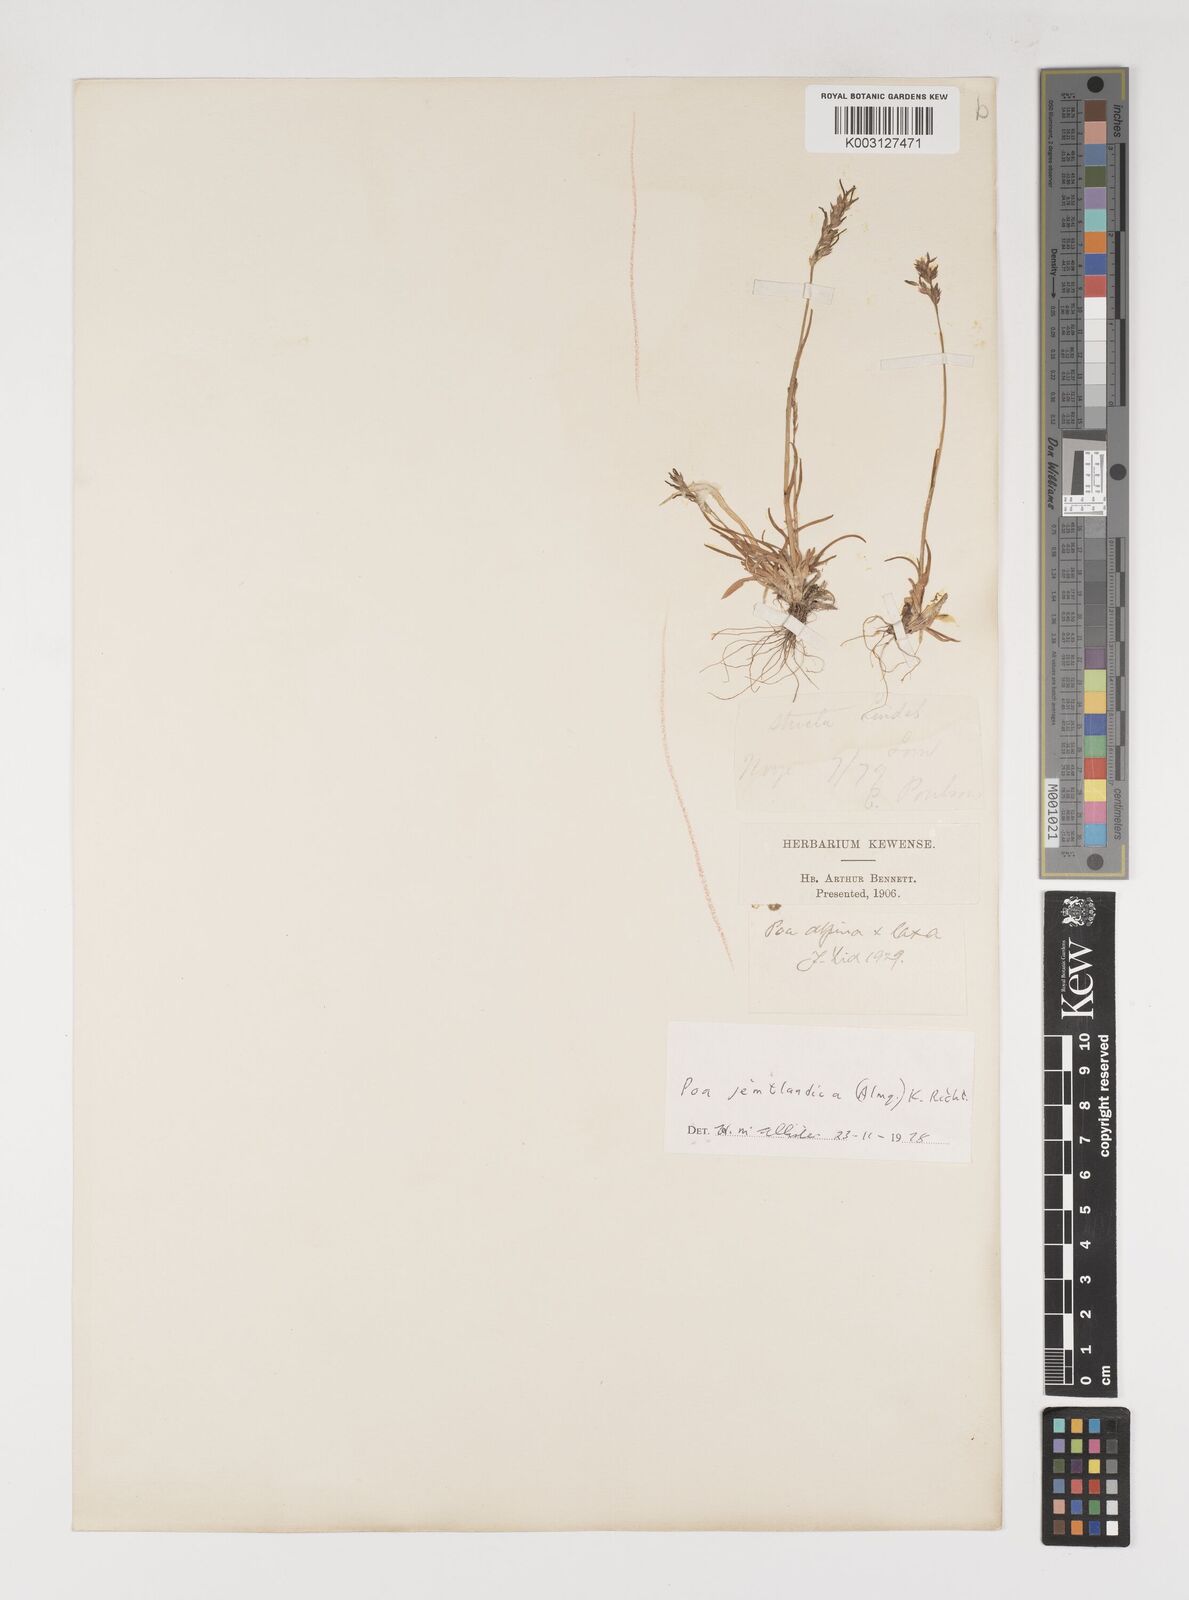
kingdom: Plantae
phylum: Tracheophyta
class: Liliopsida
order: Poales
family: Poaceae
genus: Poa
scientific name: Poa jemtlandica
